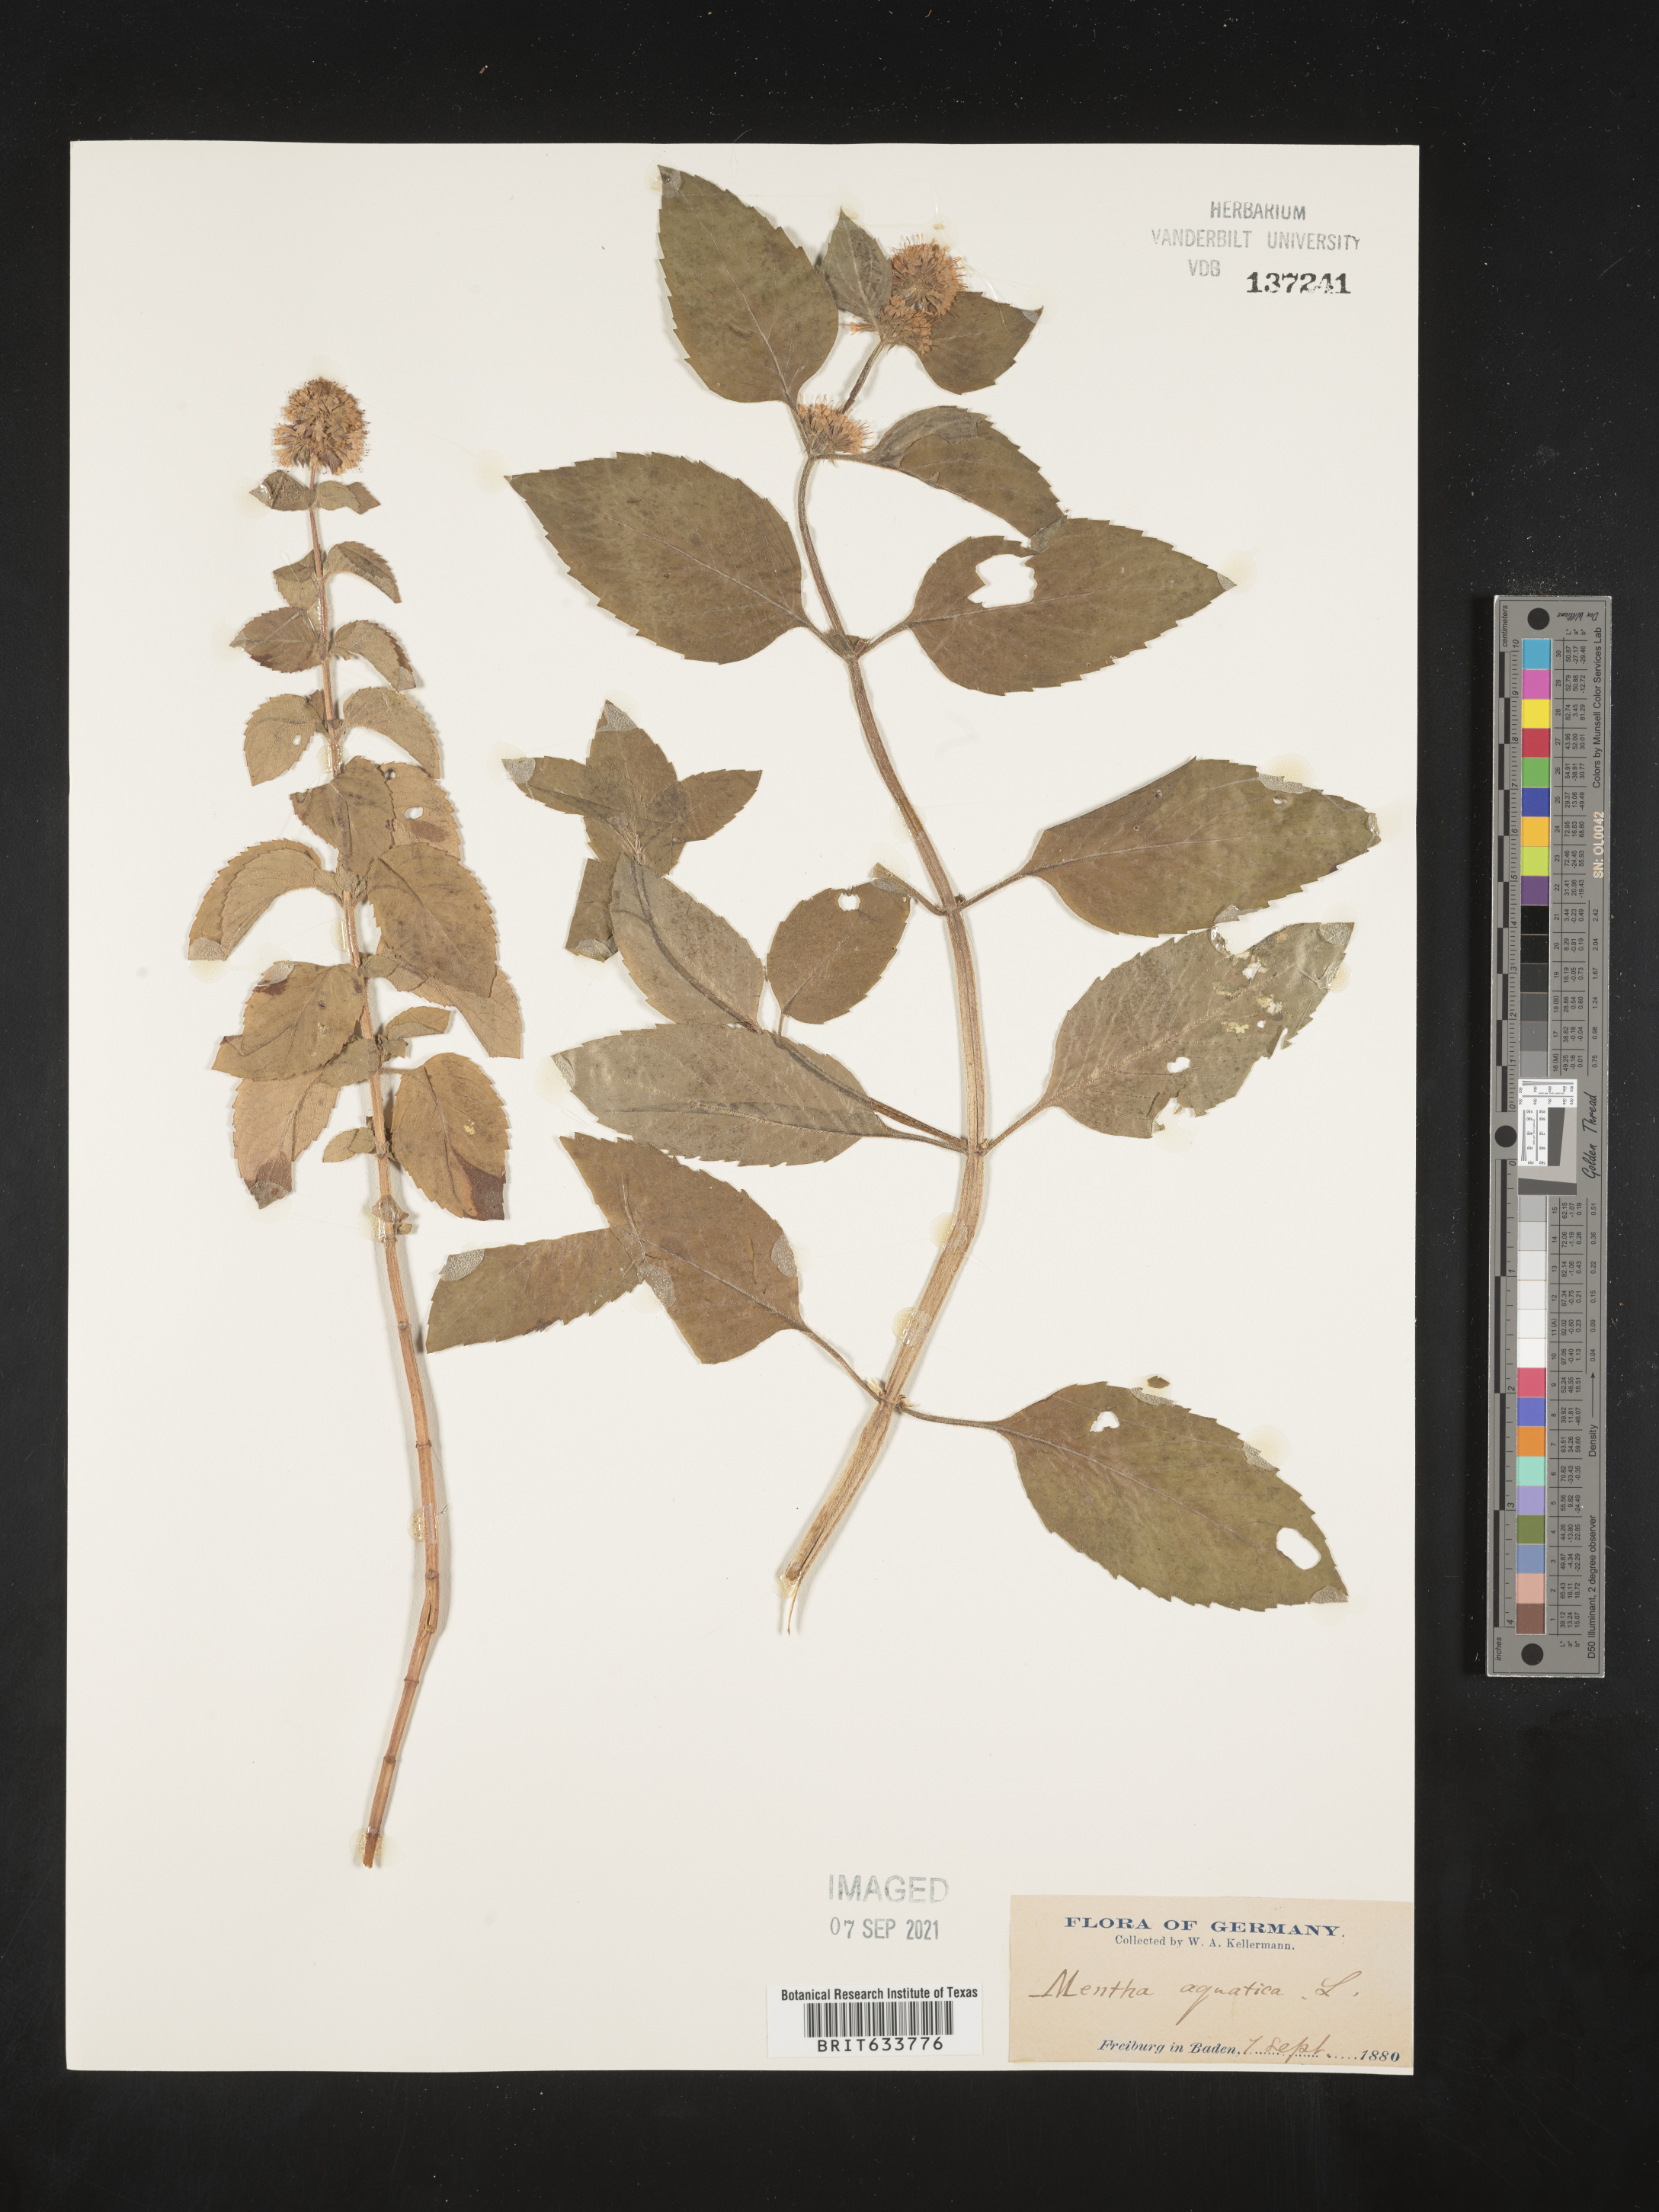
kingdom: Plantae
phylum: Tracheophyta
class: Magnoliopsida
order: Lamiales
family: Lamiaceae
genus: Mentha
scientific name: Mentha
